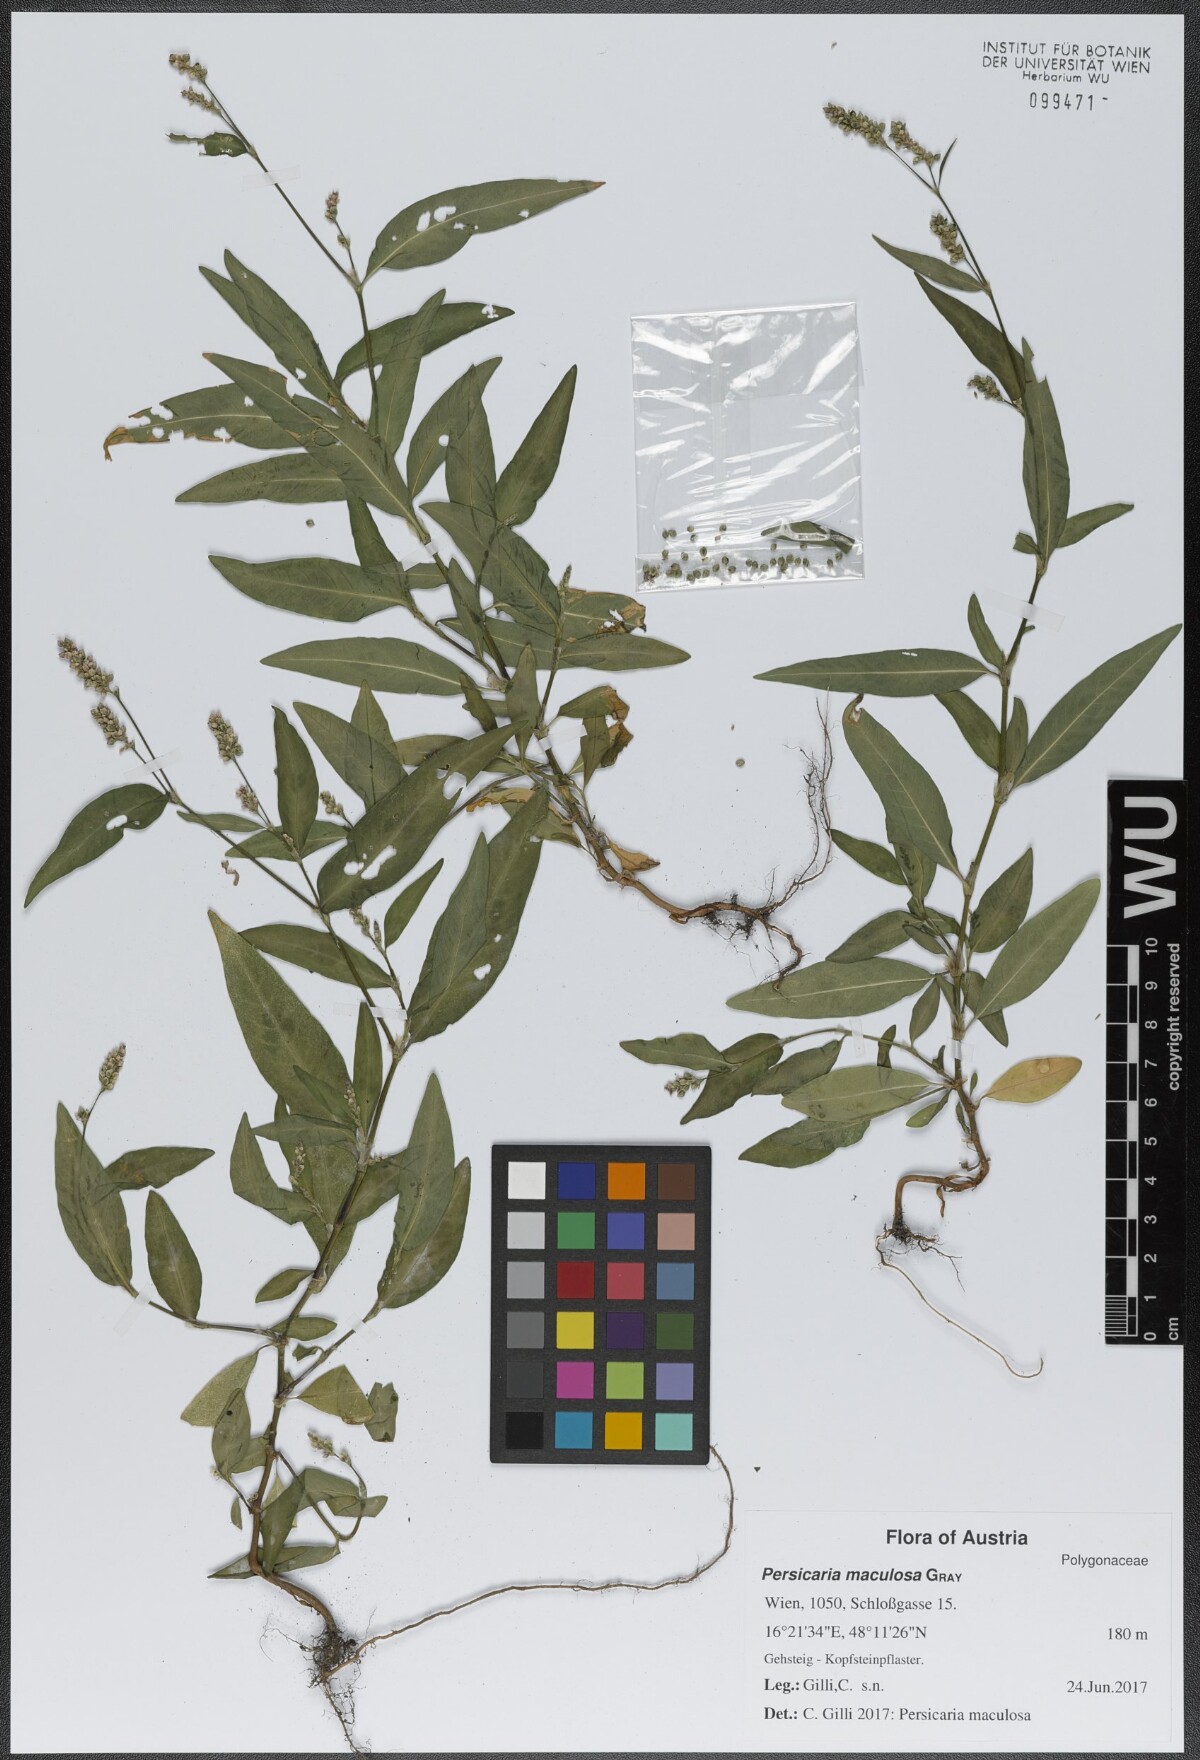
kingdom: Plantae
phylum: Tracheophyta
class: Magnoliopsida
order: Caryophyllales
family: Polygonaceae
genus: Persicaria
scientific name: Persicaria maculosa
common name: Redshank
